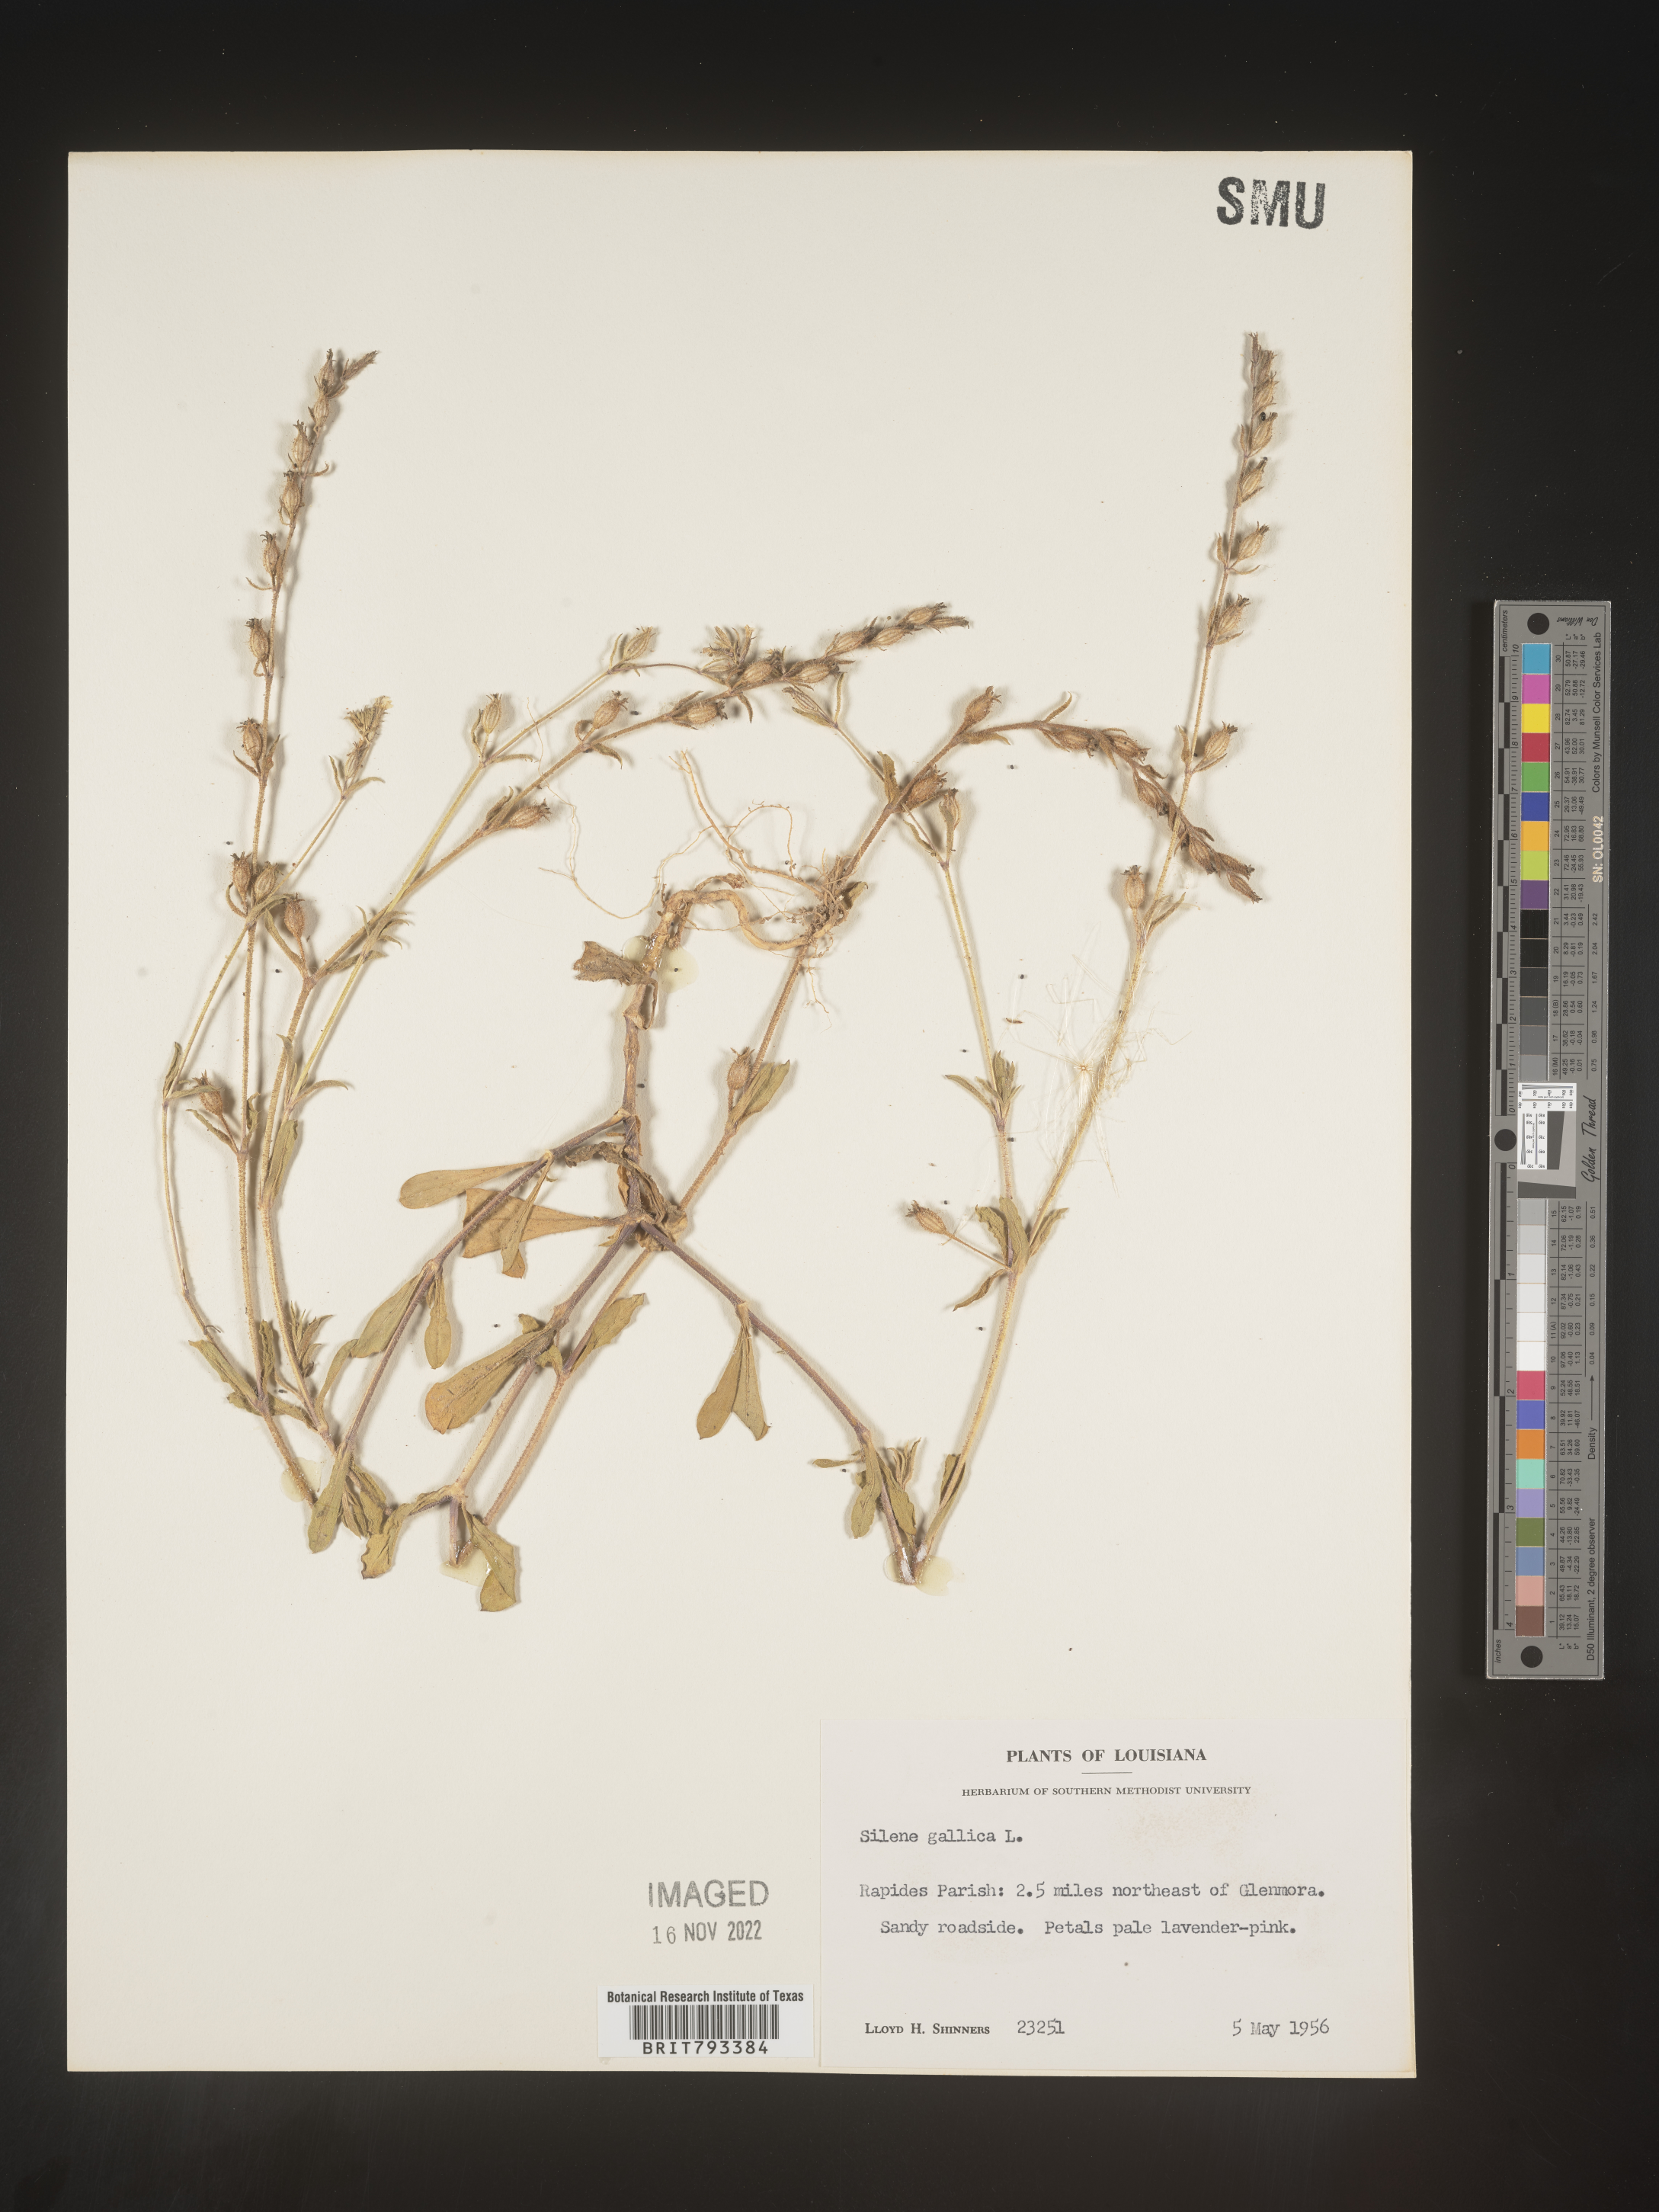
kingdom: Plantae
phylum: Tracheophyta
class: Magnoliopsida
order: Caryophyllales
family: Caryophyllaceae
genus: Silene
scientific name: Silene gallica
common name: Small-flowered catchfly
